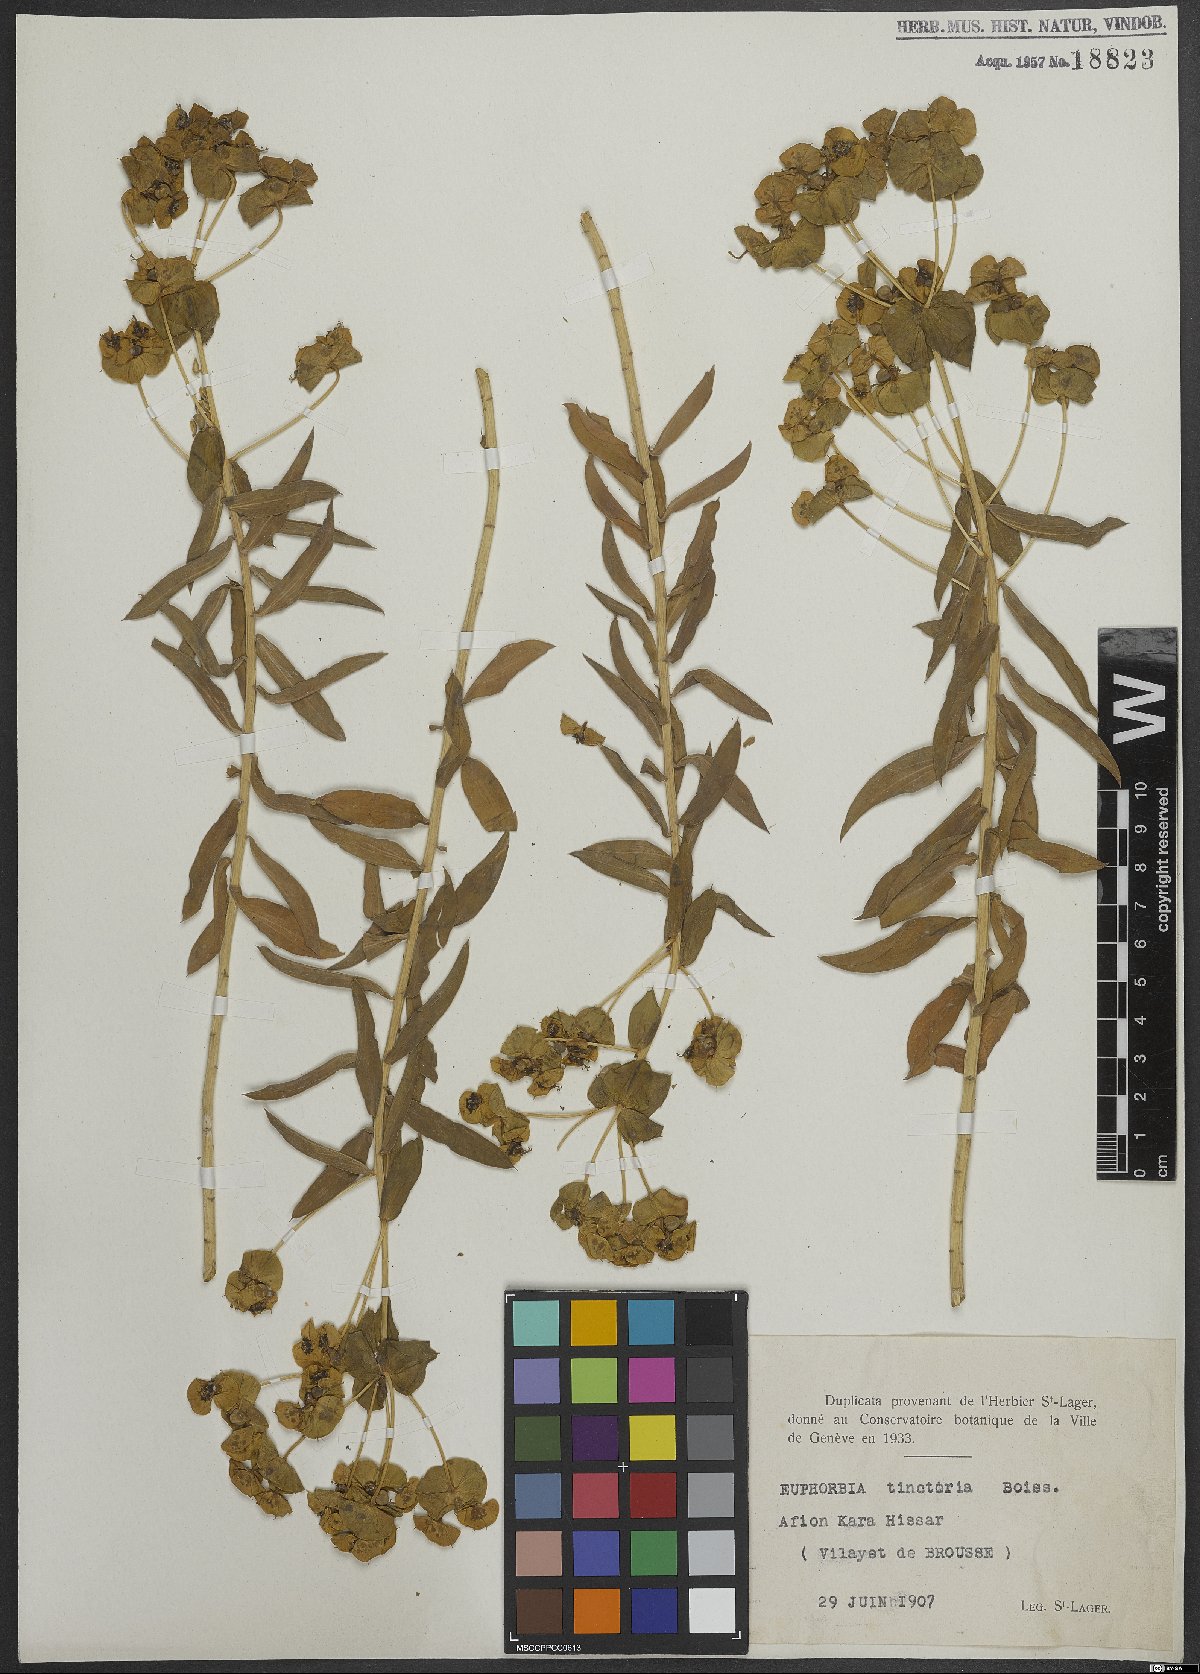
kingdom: Plantae
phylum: Tracheophyta
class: Magnoliopsida
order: Malpighiales
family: Euphorbiaceae
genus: Euphorbia
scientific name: Euphorbia macroclada
